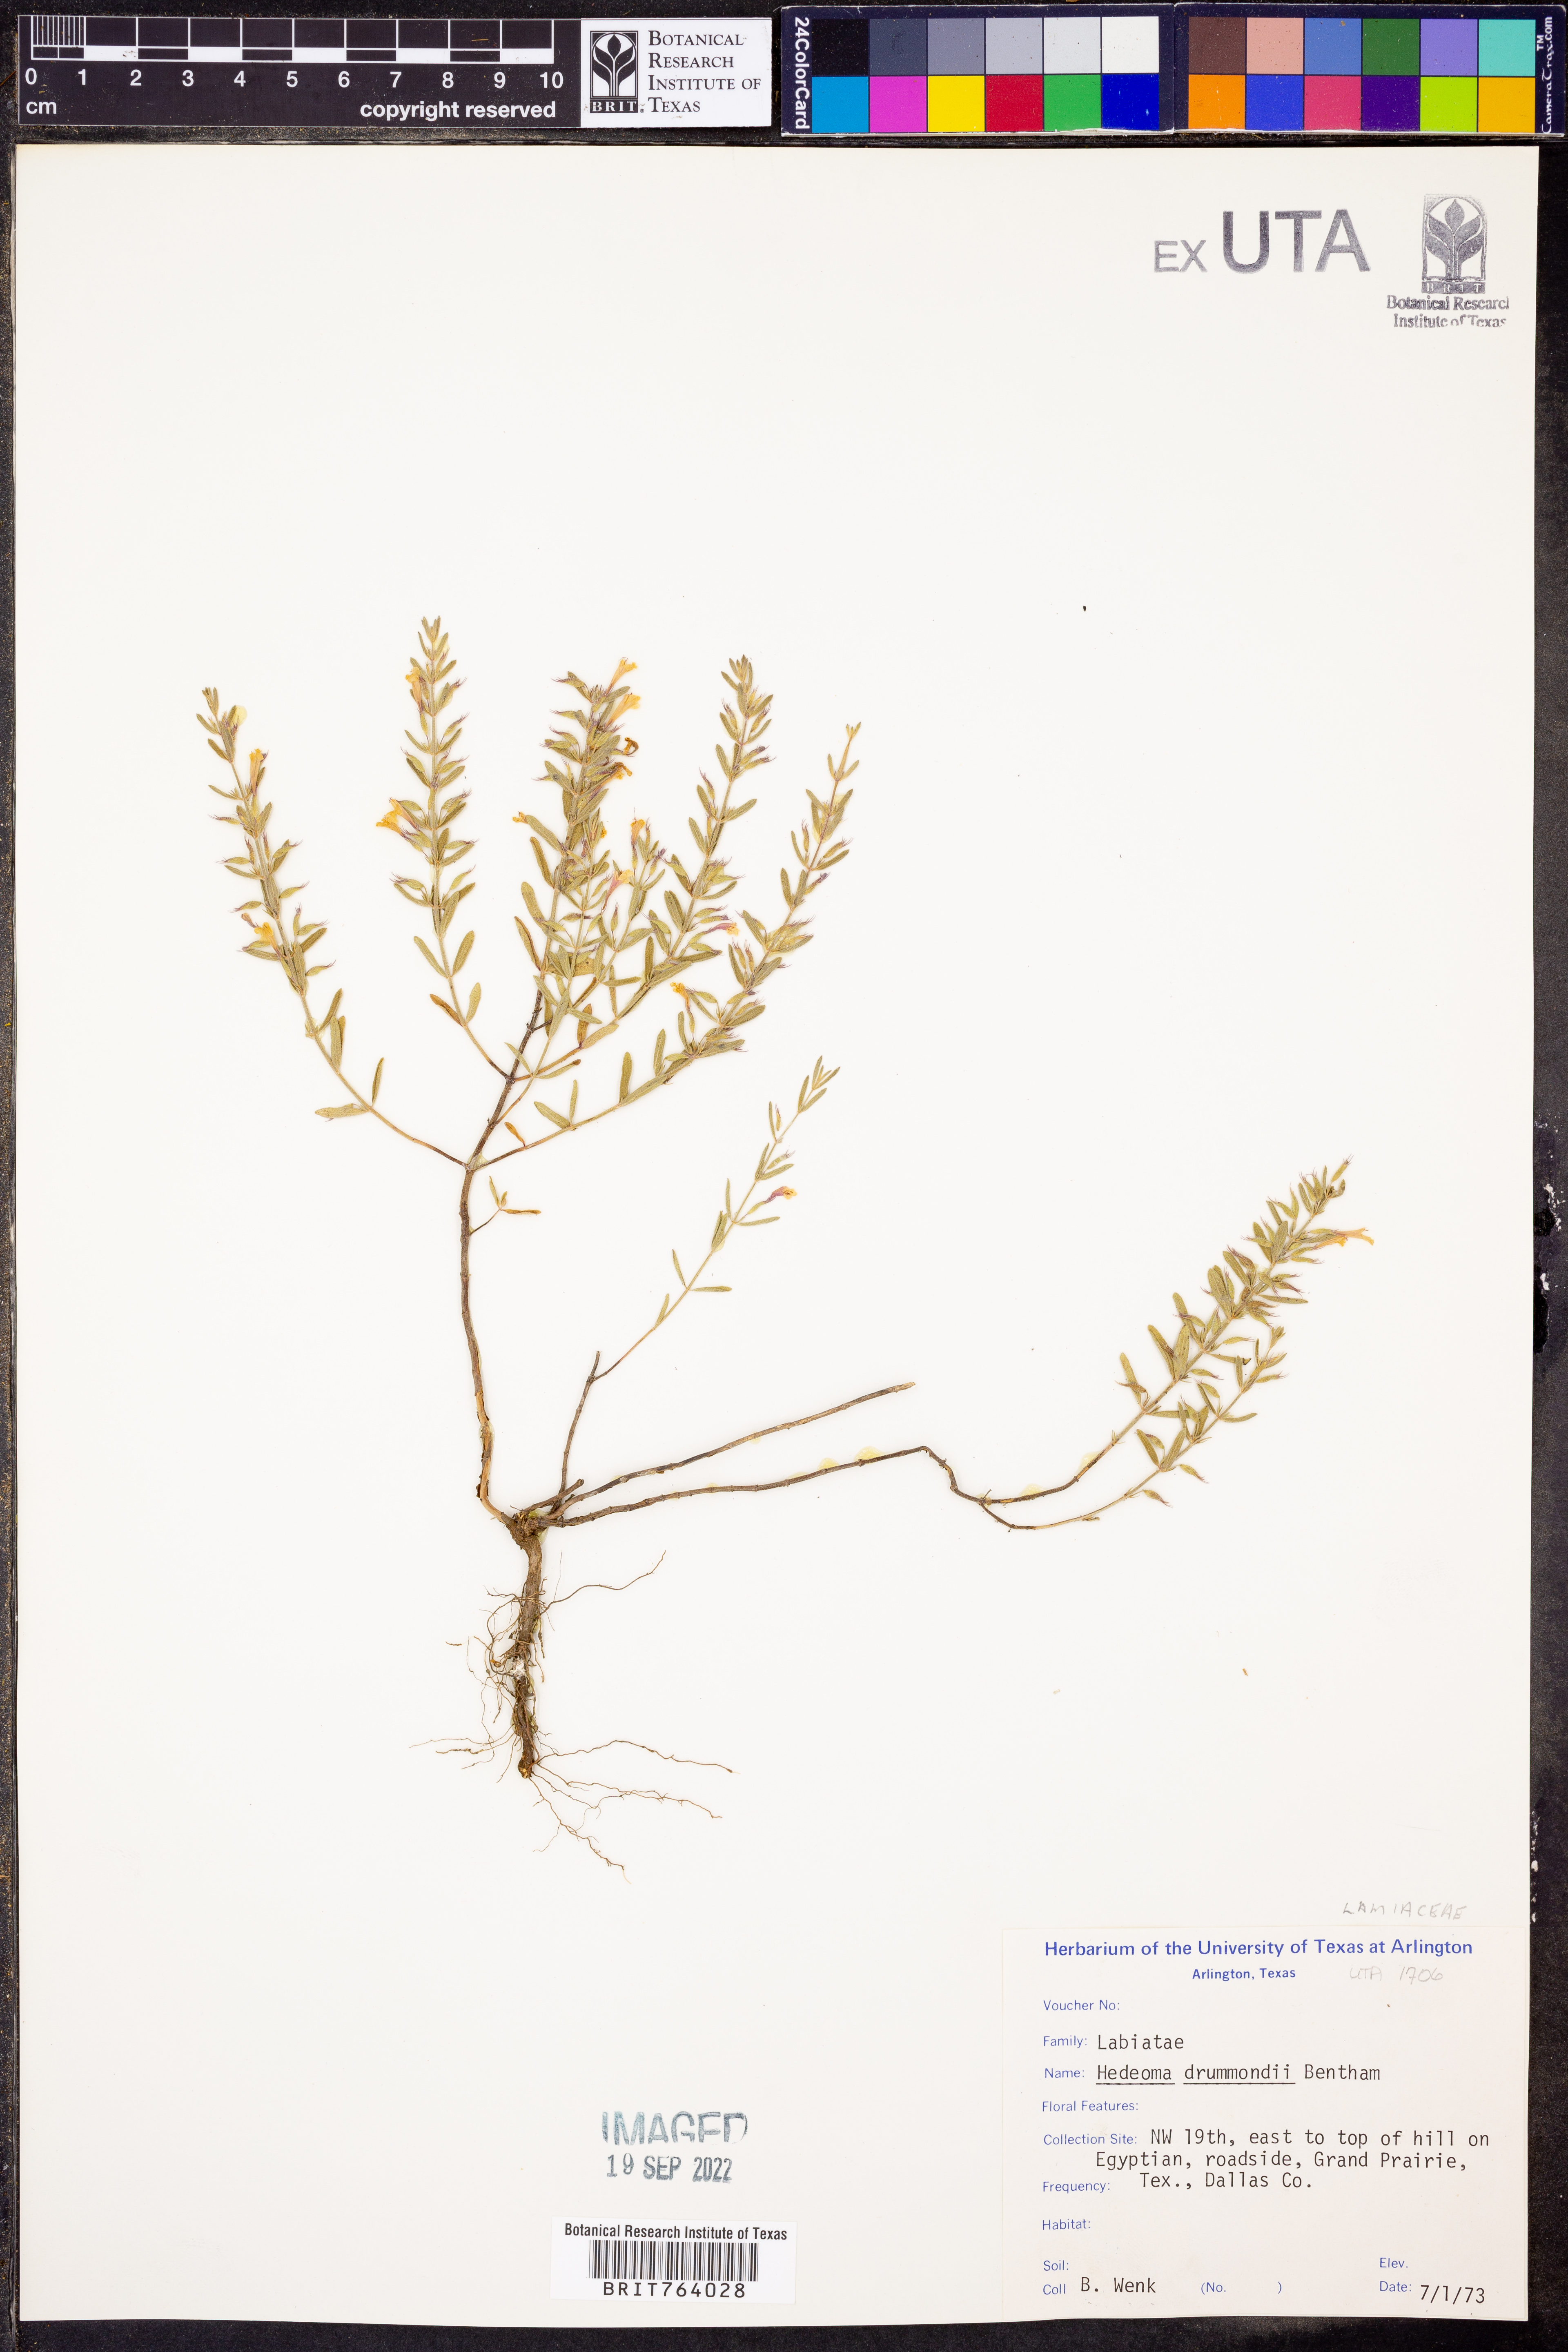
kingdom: Plantae
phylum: Tracheophyta
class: Magnoliopsida
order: Lamiales
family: Lamiaceae
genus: Hedeoma
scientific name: Hedeoma drummondii
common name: New mexico pennyroyal
